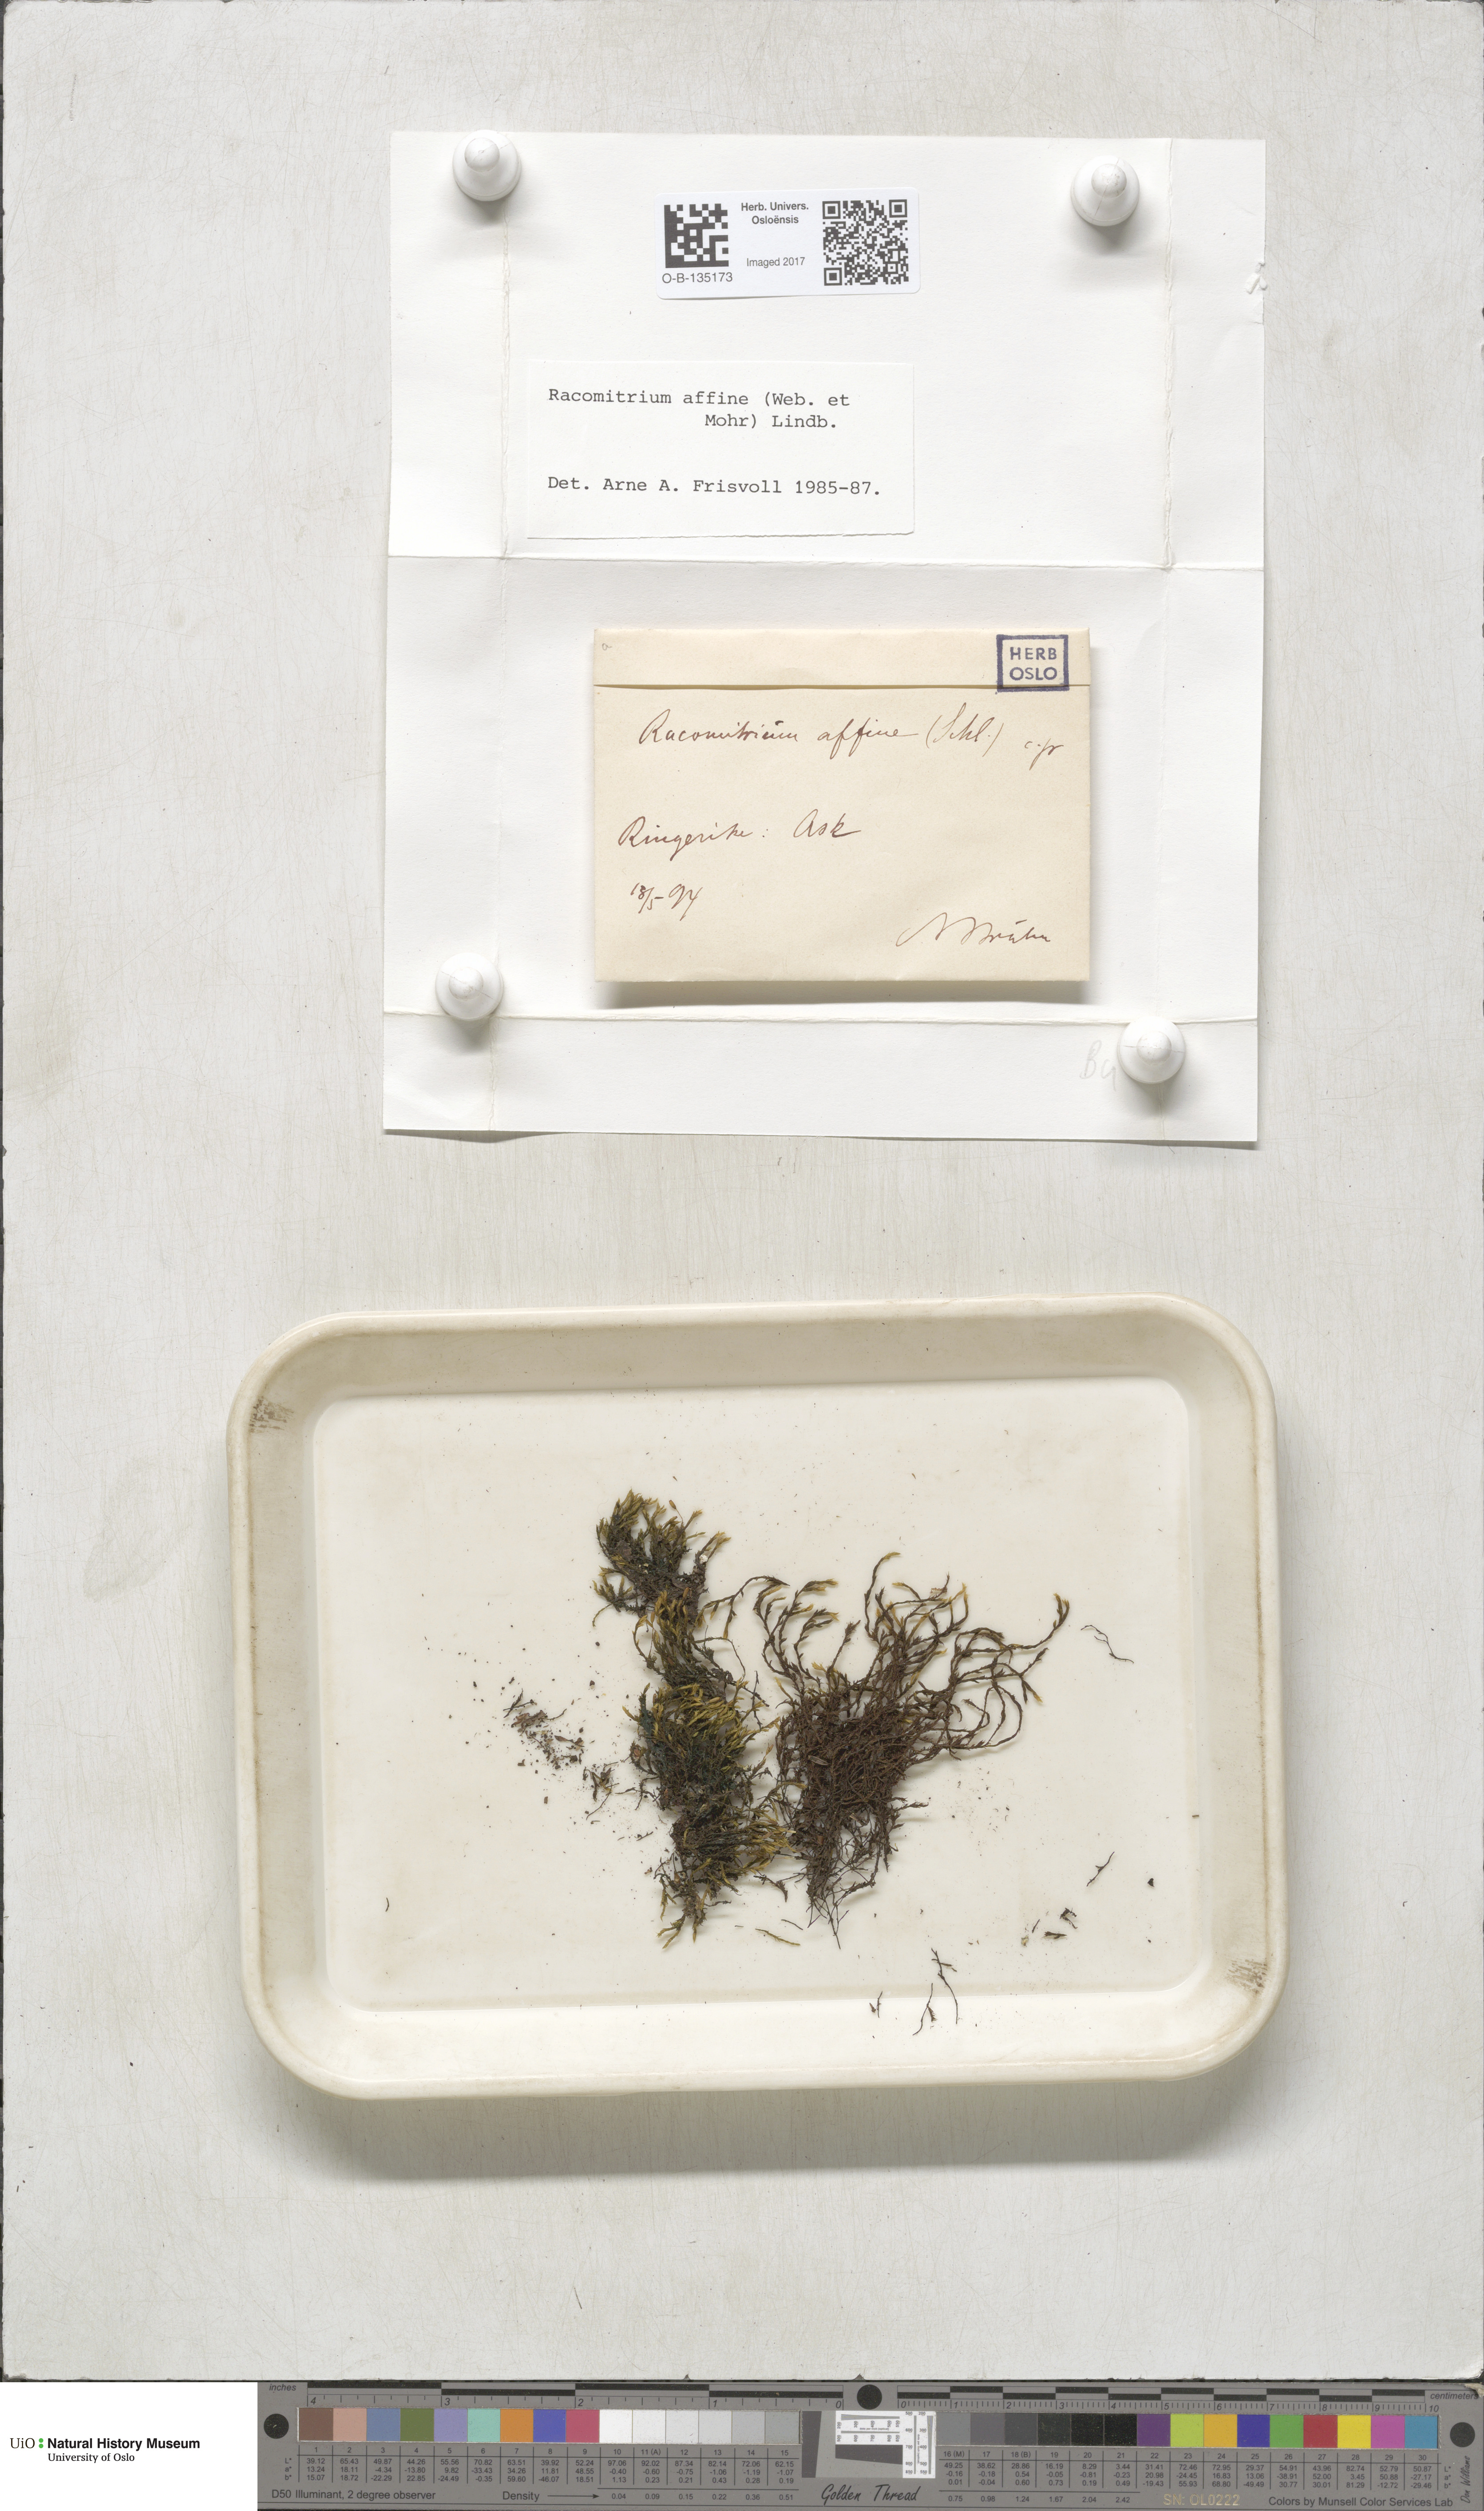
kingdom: Plantae
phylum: Bryophyta
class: Bryopsida
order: Grimmiales
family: Grimmiaceae
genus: Bucklandiella
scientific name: Bucklandiella affinis
